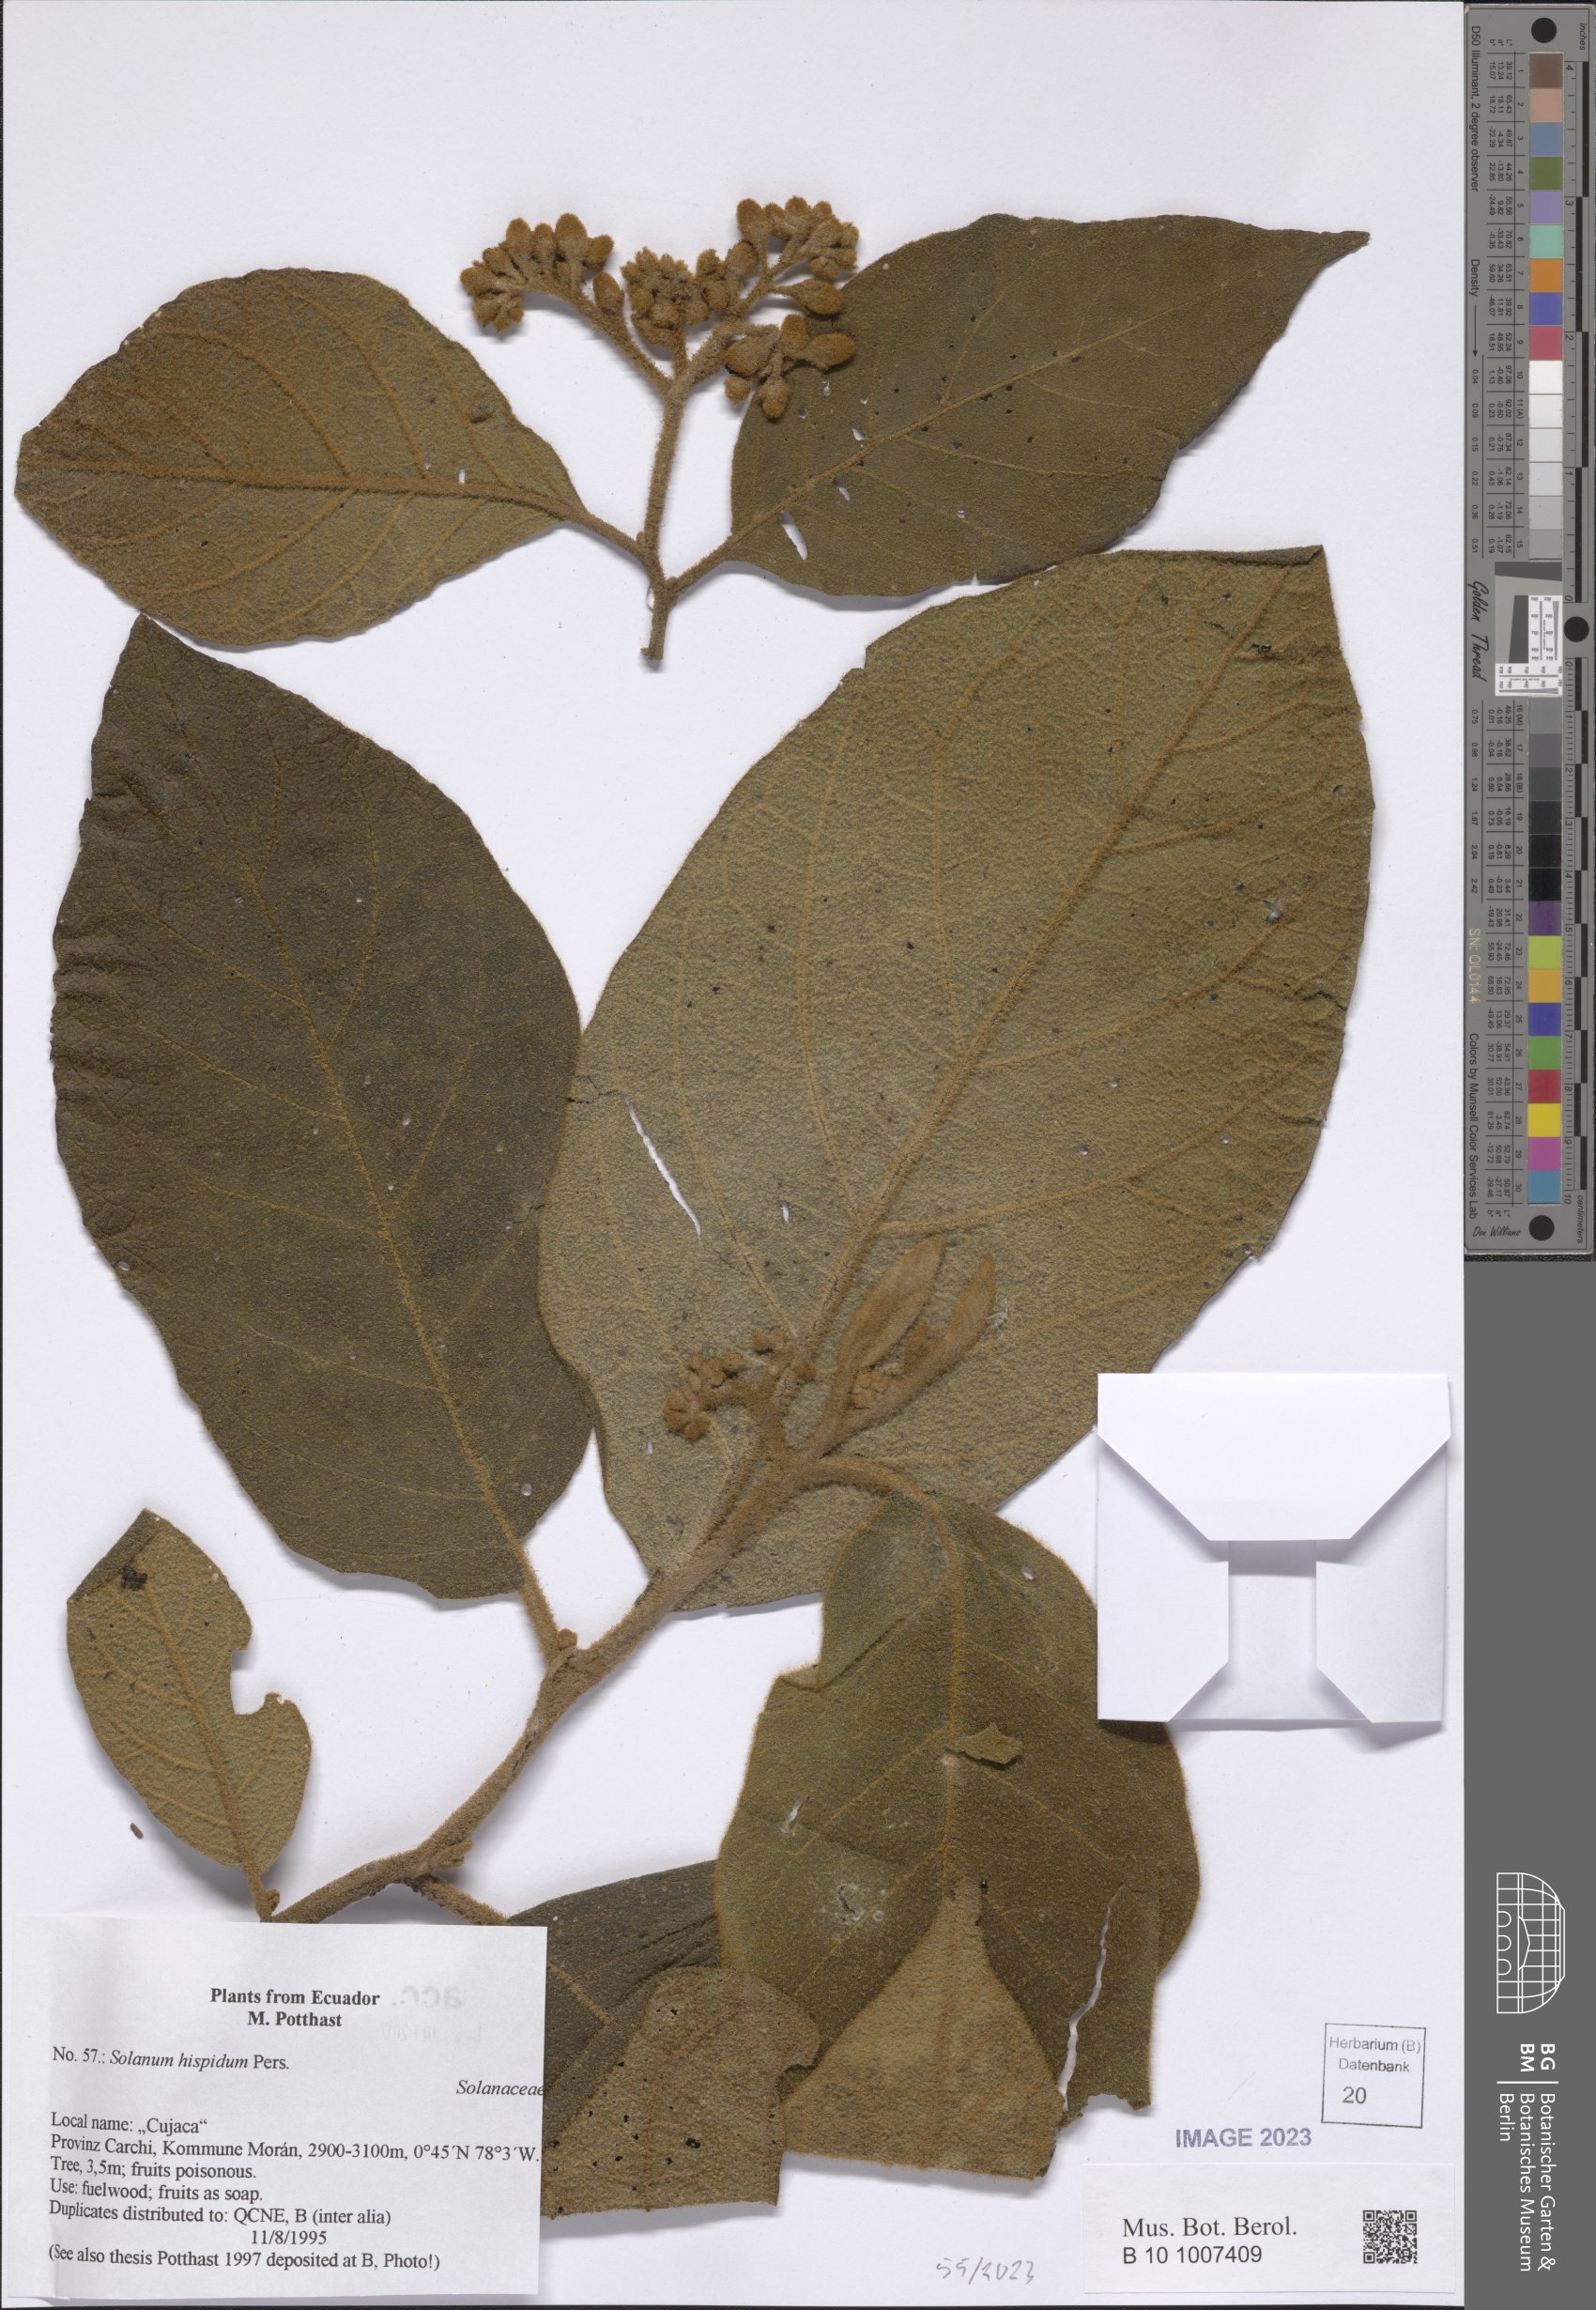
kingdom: Plantae
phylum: Tracheophyta
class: Magnoliopsida
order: Solanales
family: Solanaceae
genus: Solanum
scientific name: Solanum asperolanatum
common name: Devil's-fig
